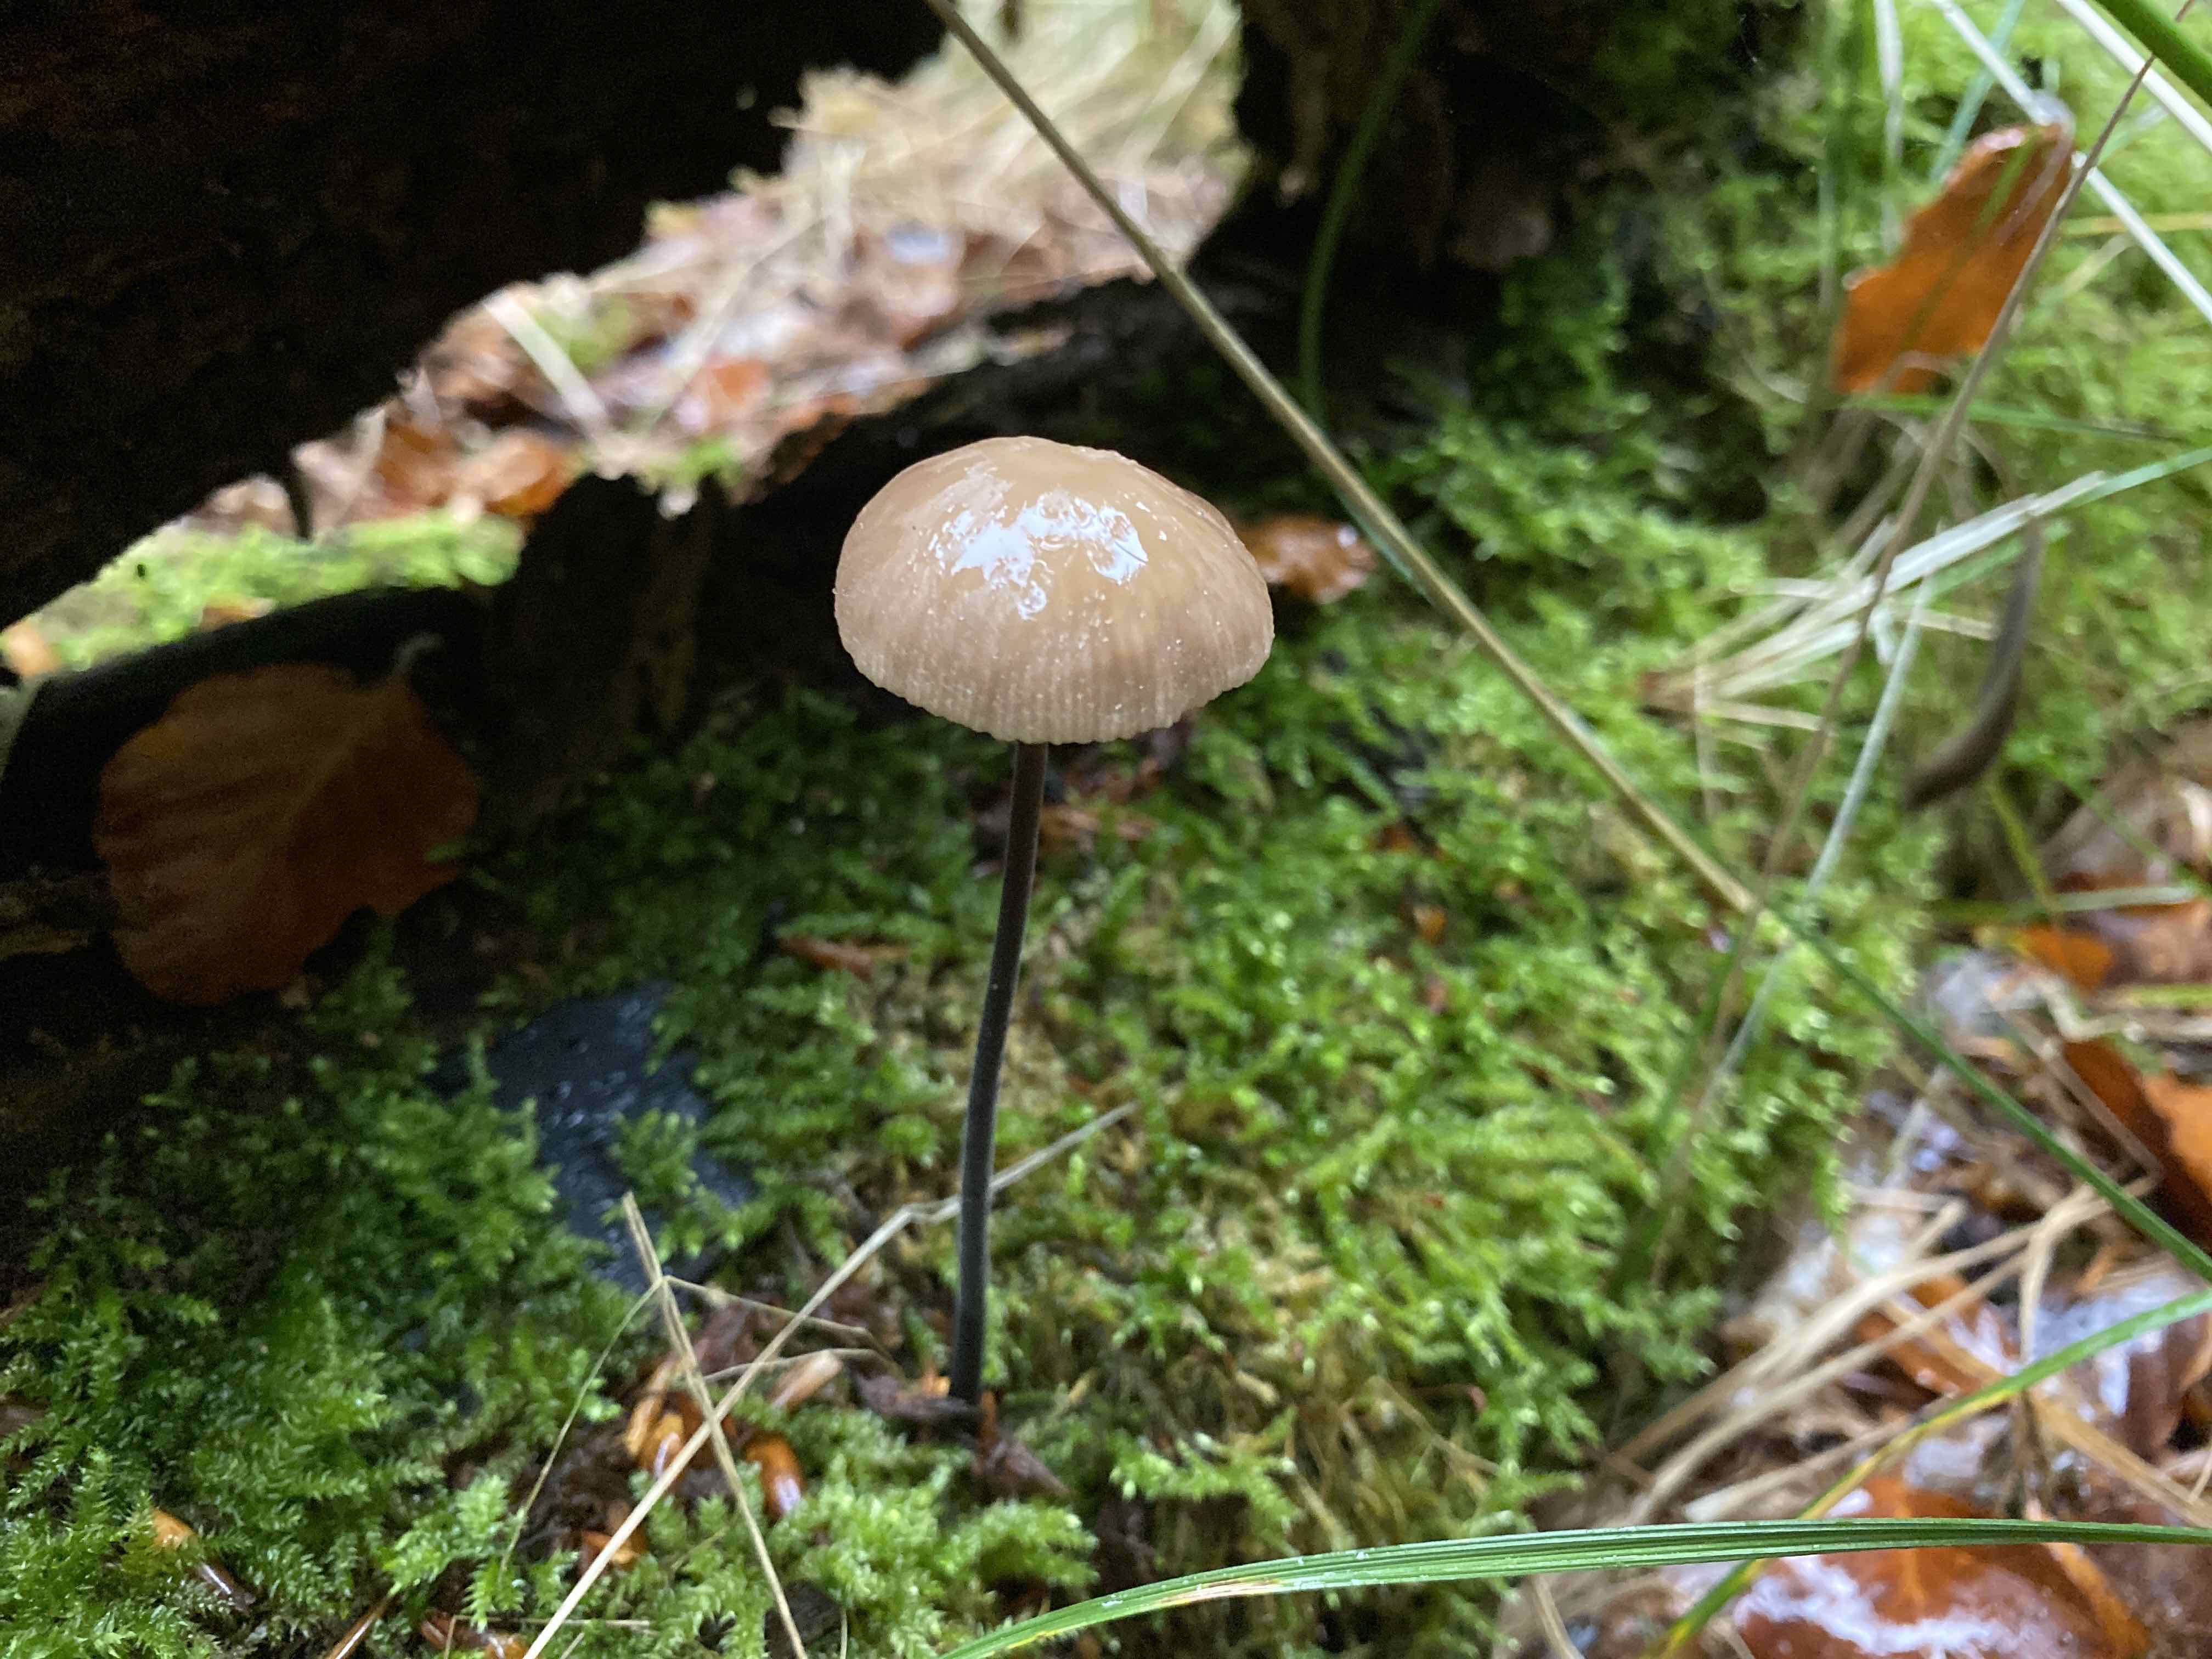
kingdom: Fungi
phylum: Basidiomycota
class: Agaricomycetes
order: Agaricales
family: Omphalotaceae
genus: Mycetinis
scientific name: Mycetinis alliaceus
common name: stor løghat
